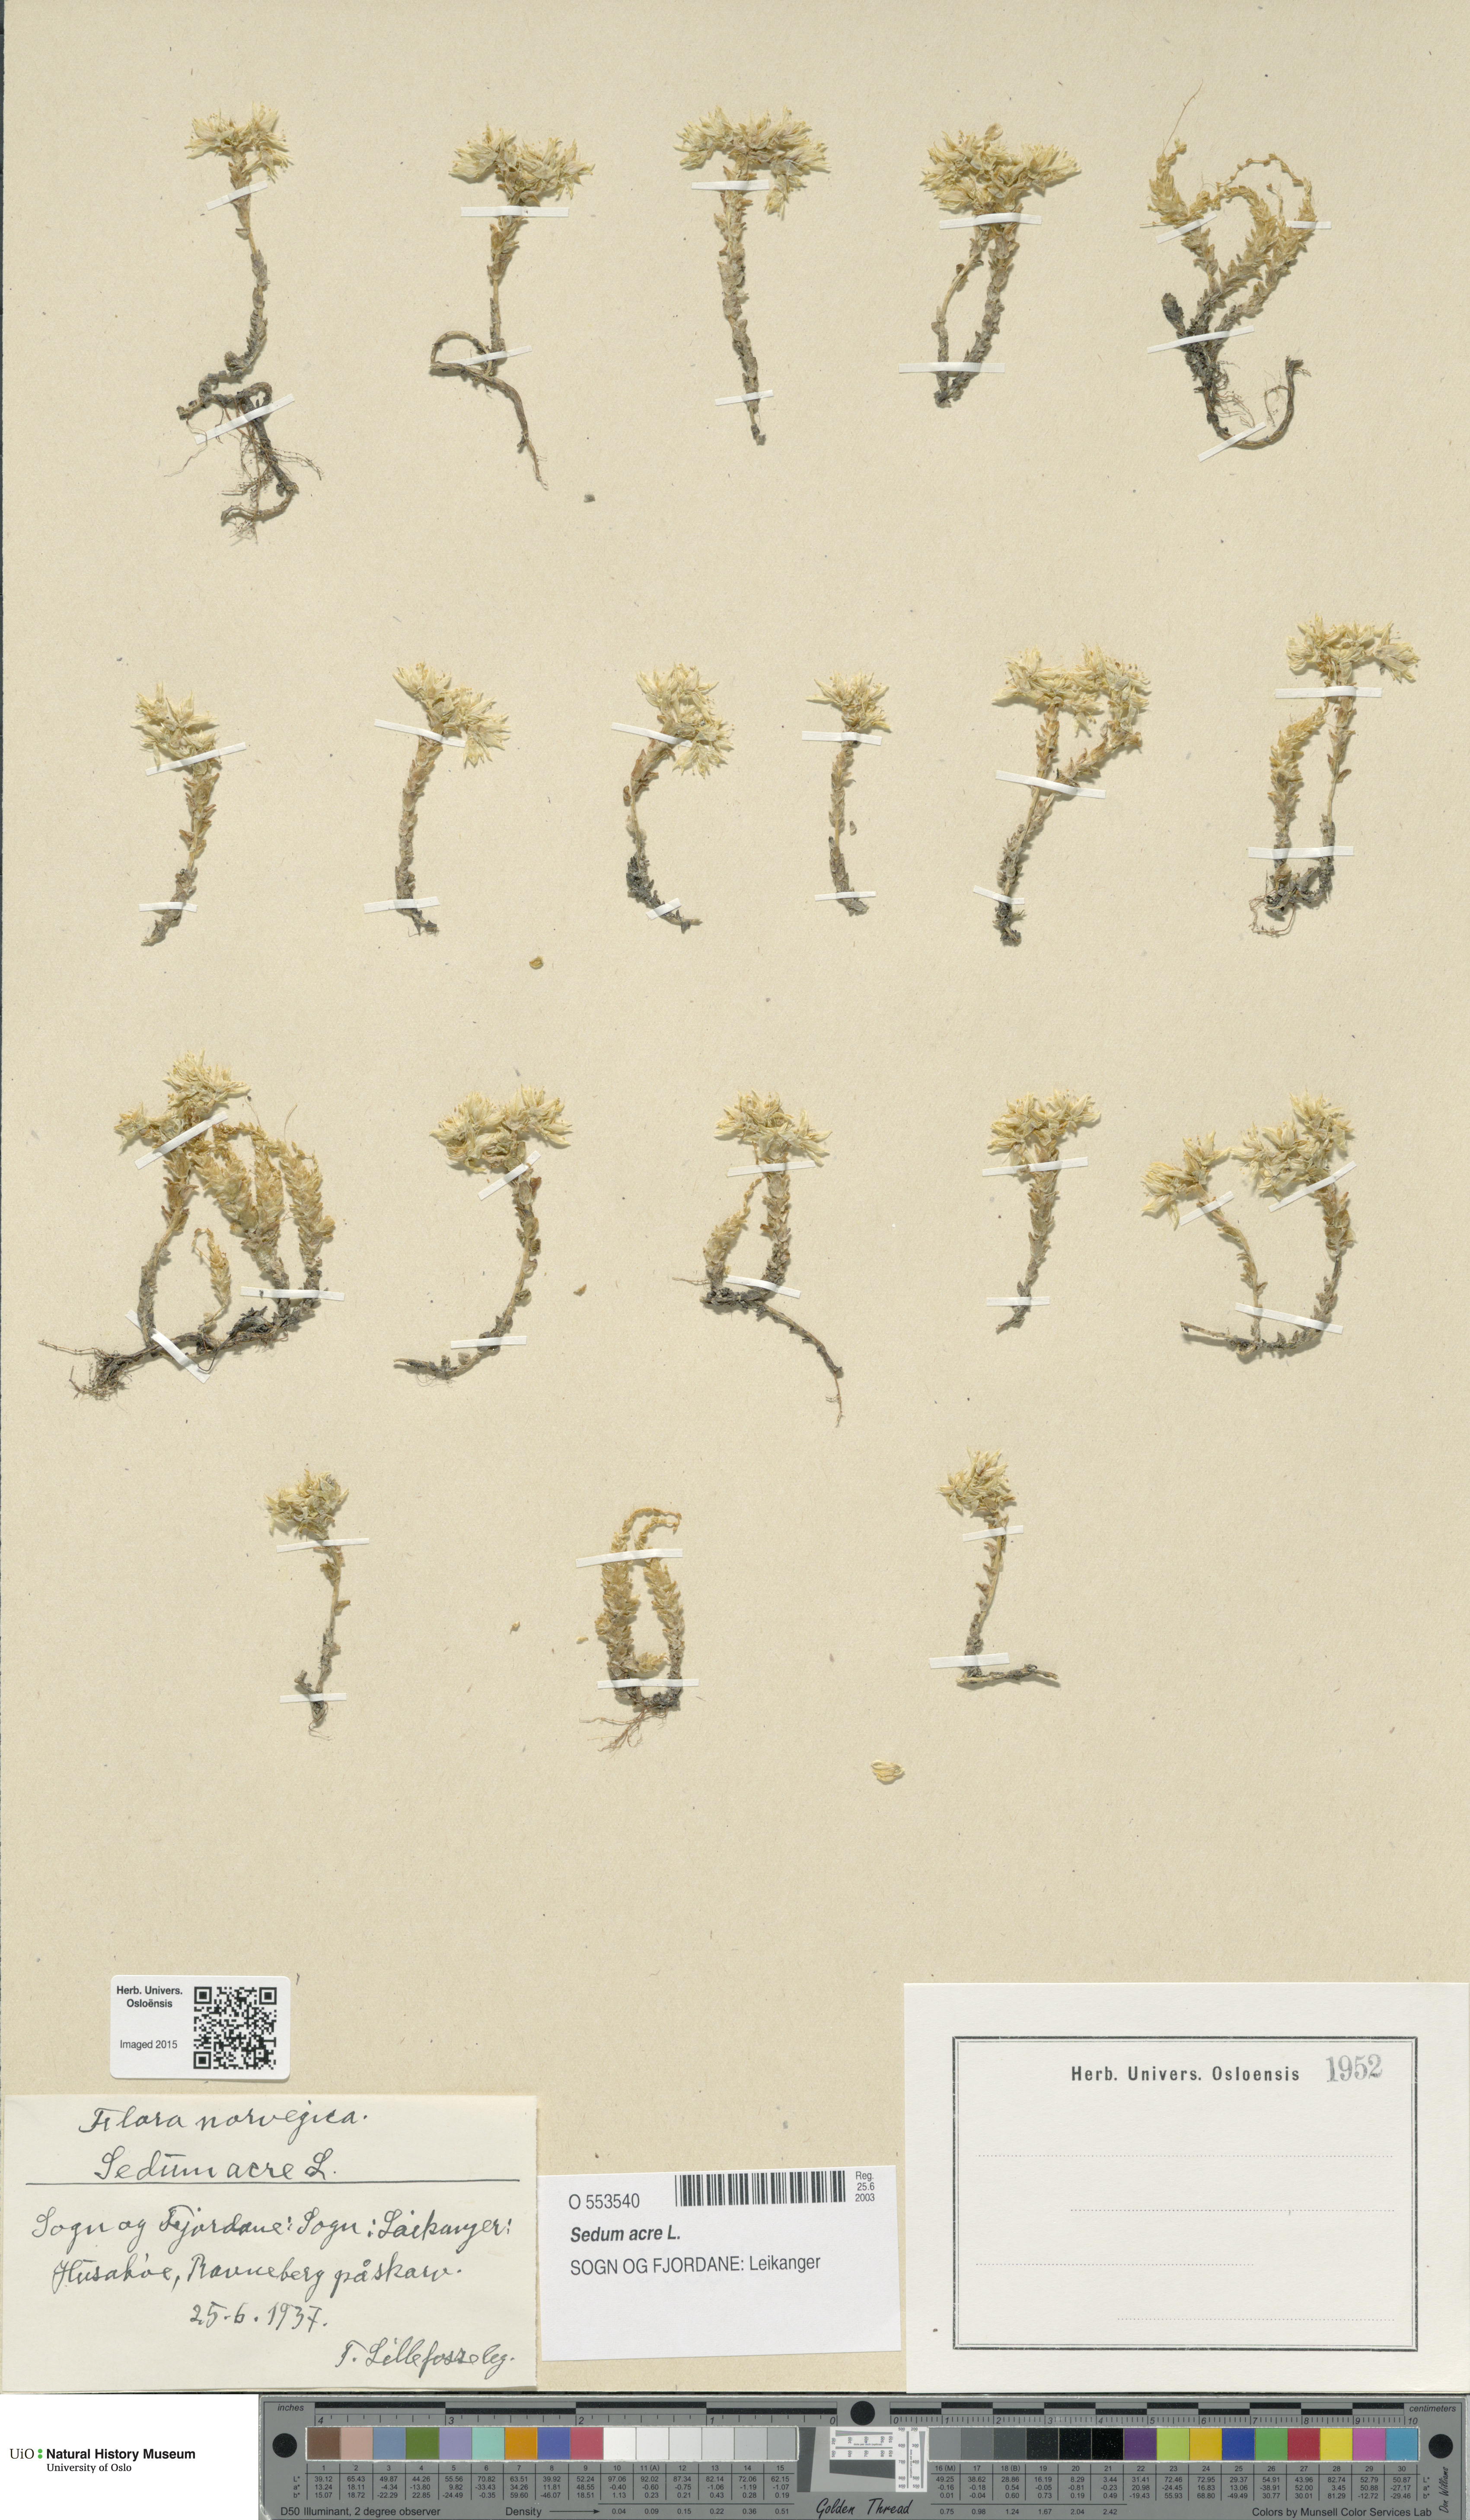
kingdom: Plantae
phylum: Tracheophyta
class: Magnoliopsida
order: Saxifragales
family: Crassulaceae
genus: Sedum
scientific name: Sedum acre
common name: Biting stonecrop
